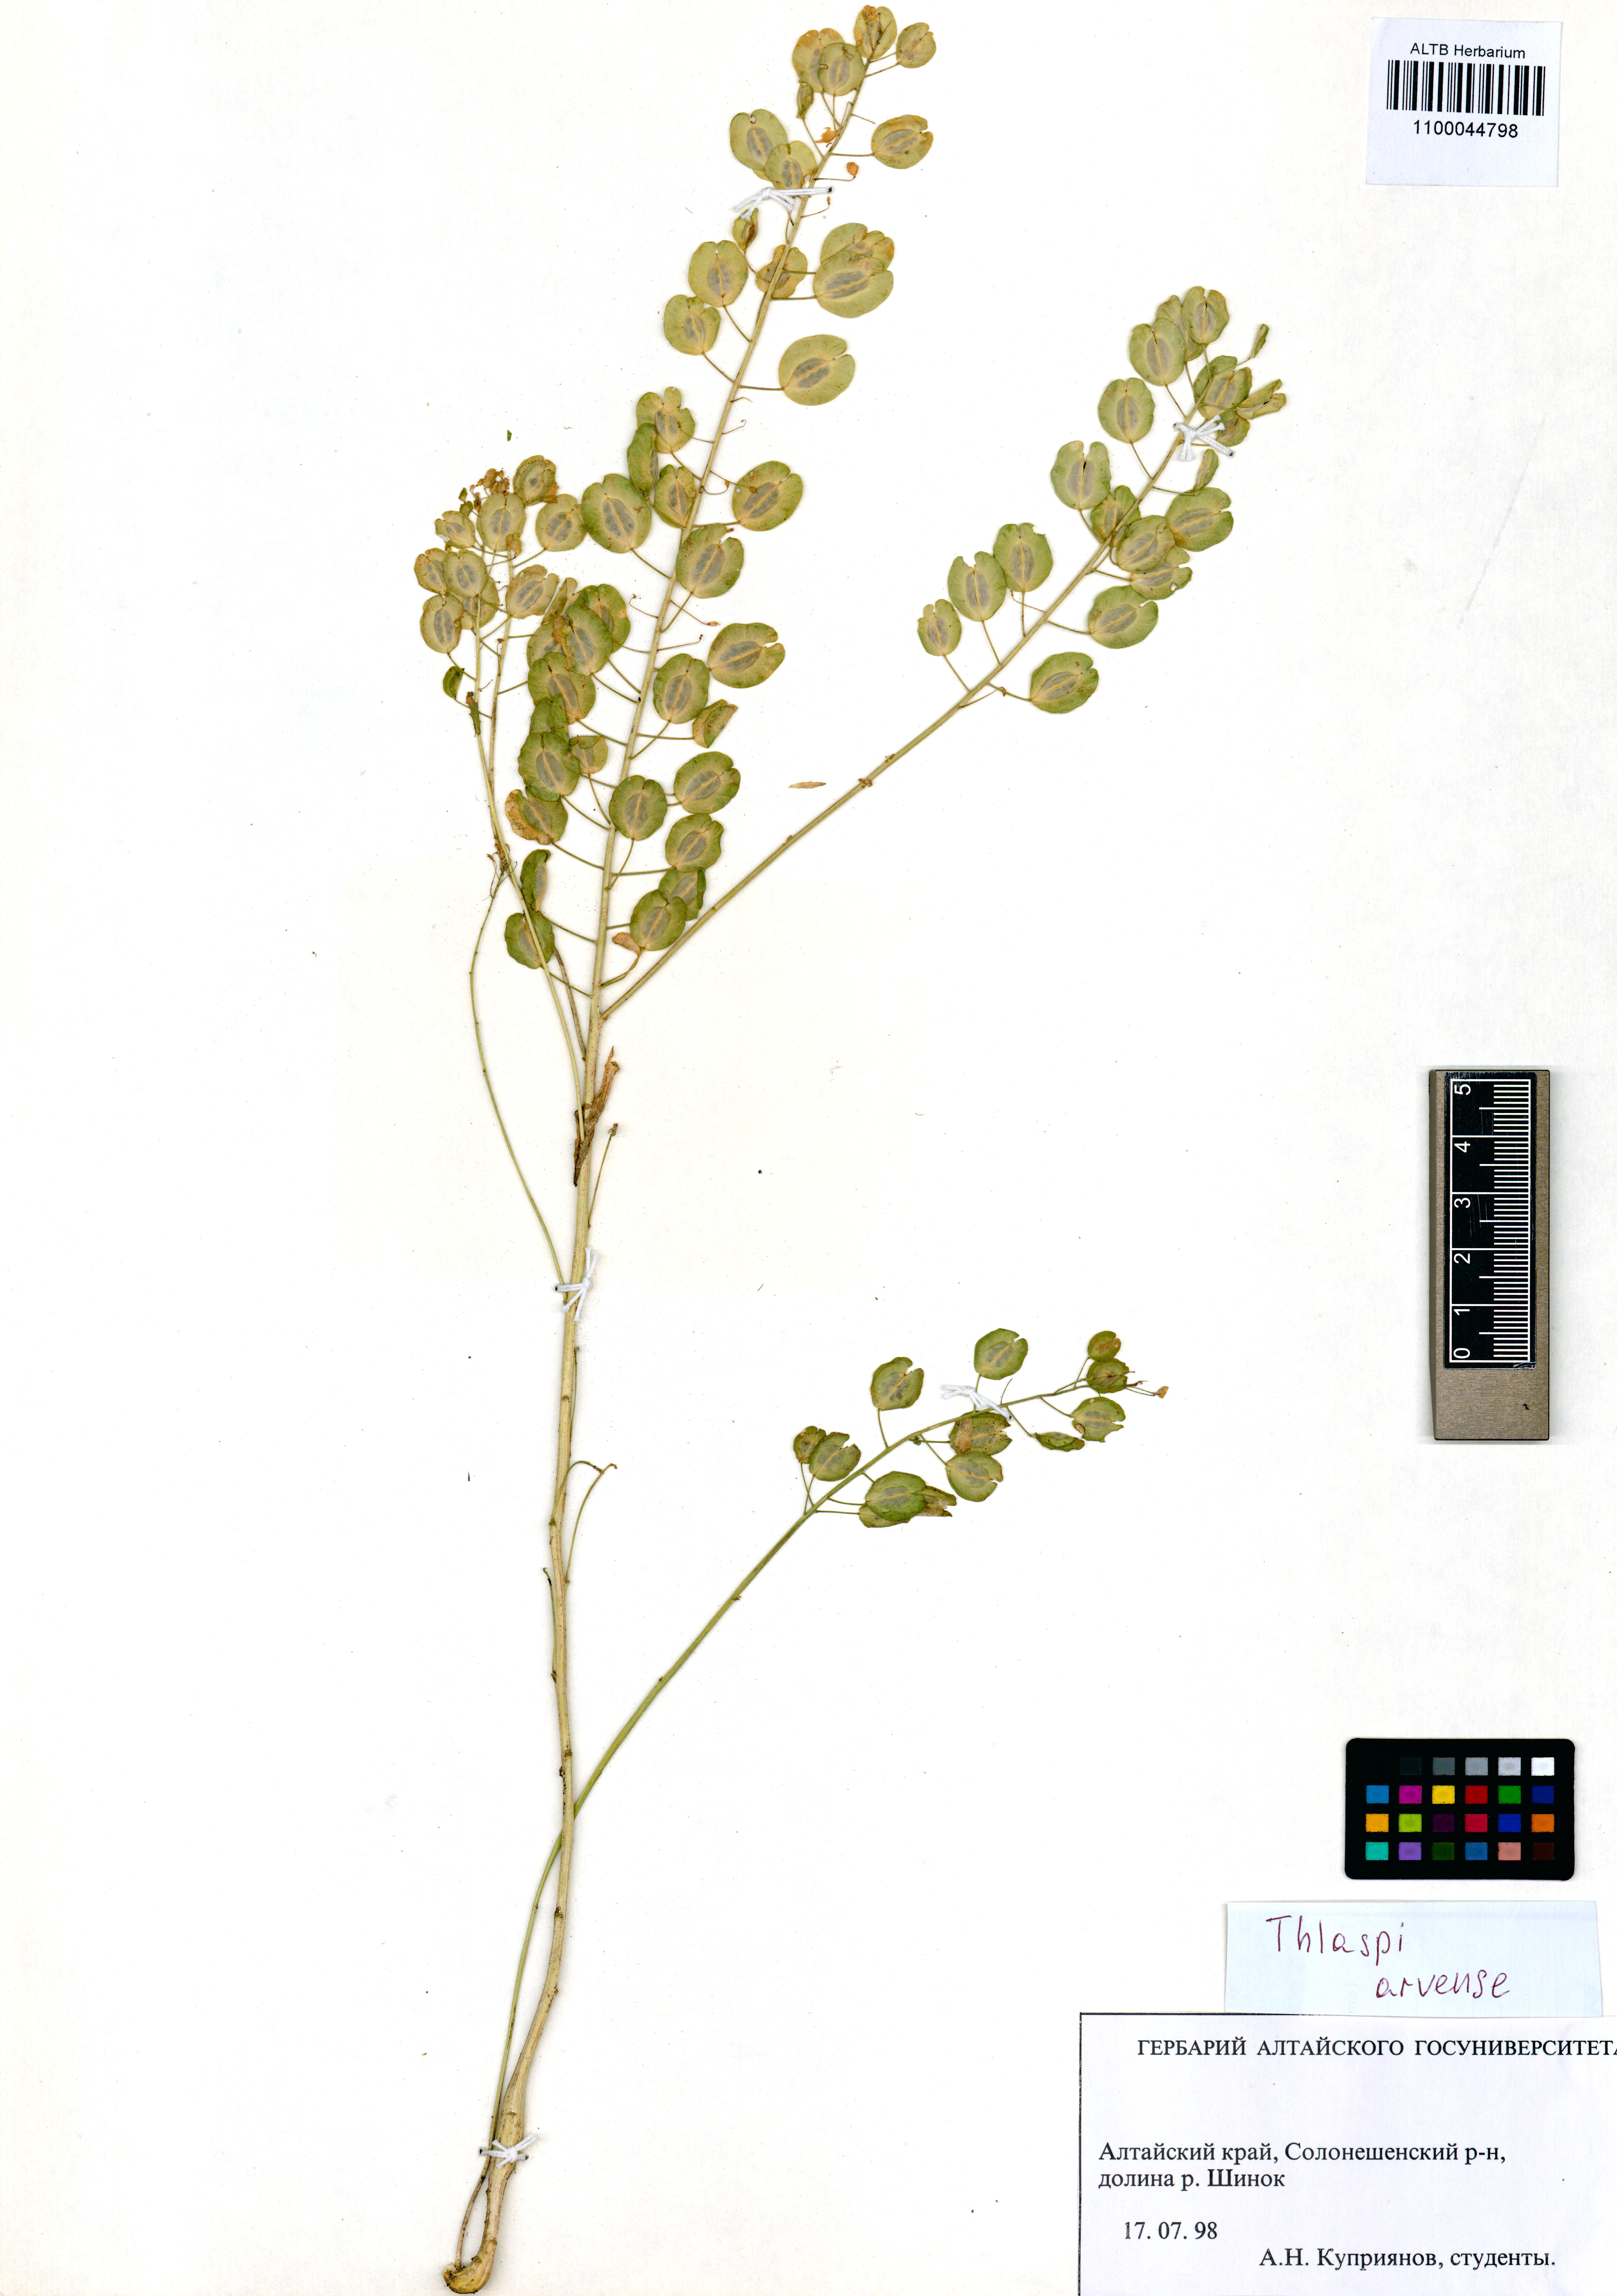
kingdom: Plantae
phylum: Tracheophyta
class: Magnoliopsida
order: Brassicales
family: Brassicaceae
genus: Thlaspi
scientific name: Thlaspi arvense
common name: Field pennycress
